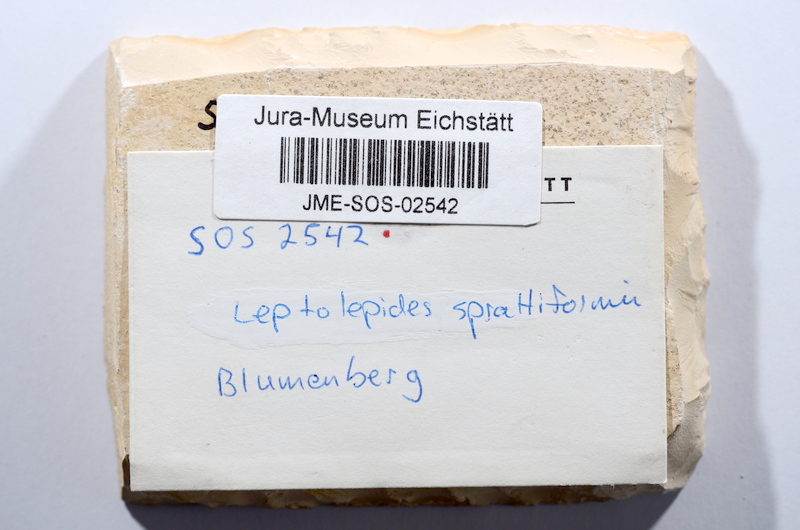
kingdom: Animalia
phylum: Chordata
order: Salmoniformes
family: Orthogonikleithridae
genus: Leptolepides
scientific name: Leptolepides sprattiformis
